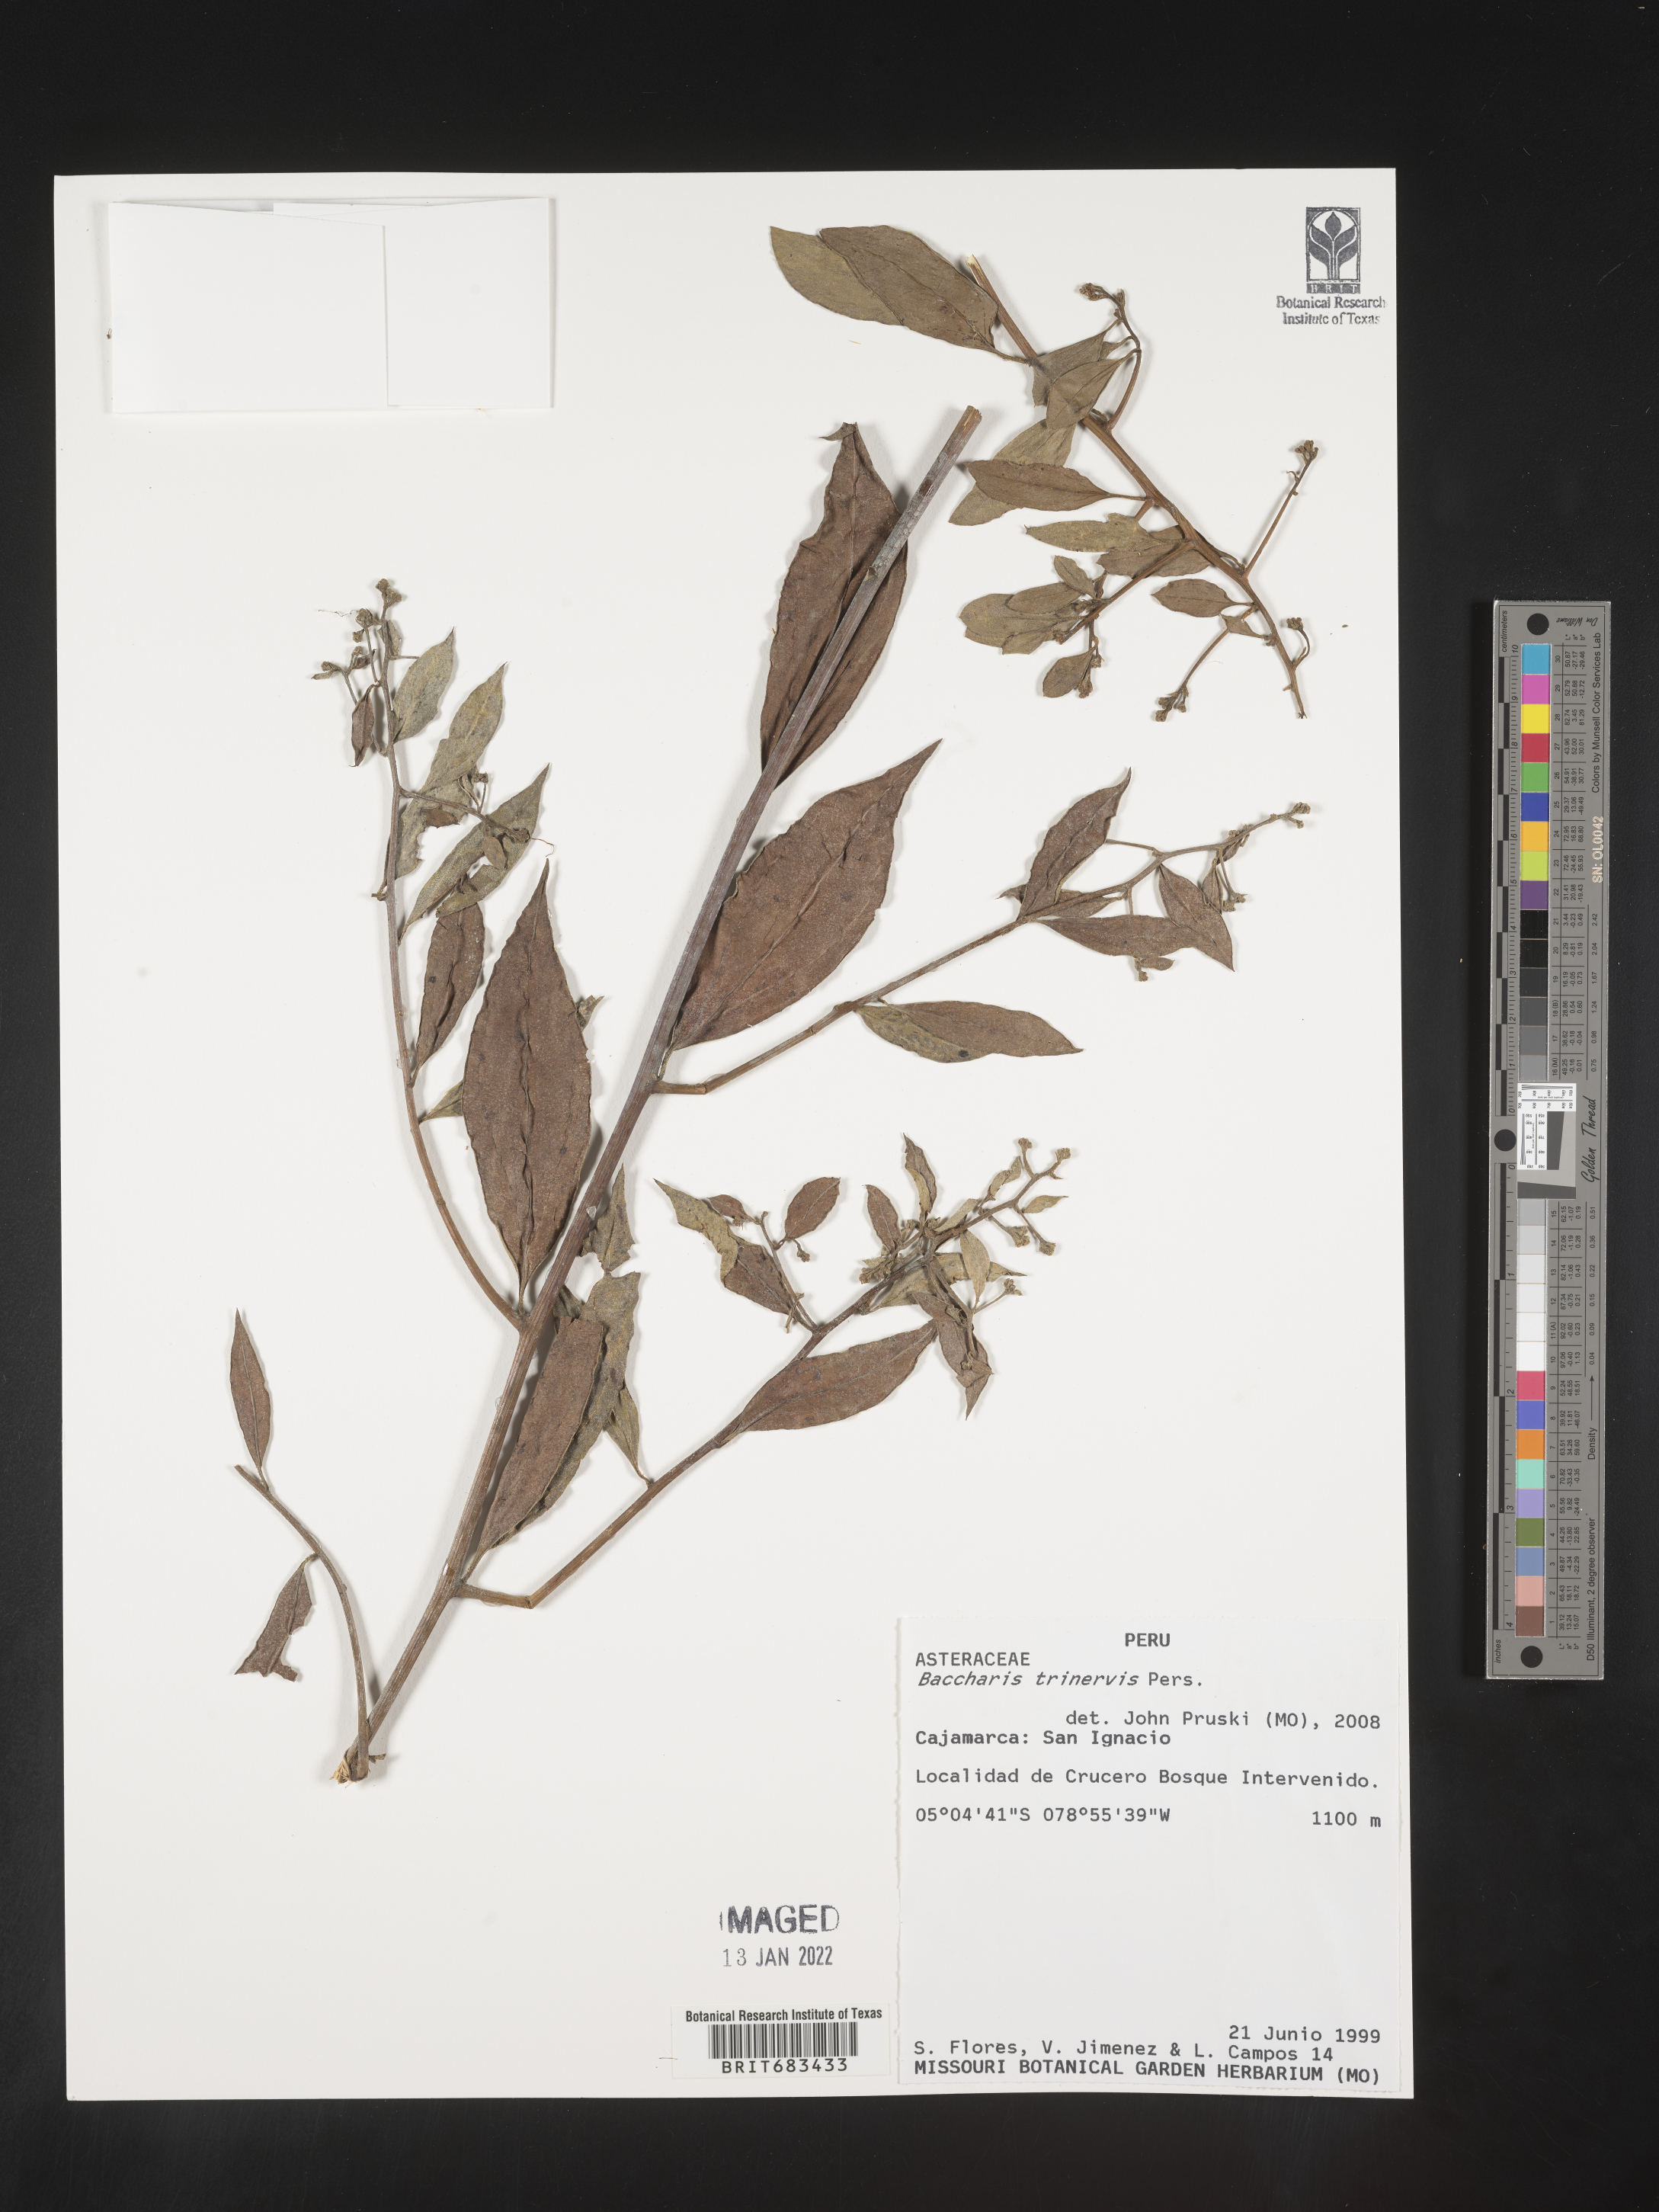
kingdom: Plantae
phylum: Tracheophyta
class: Magnoliopsida
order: Asterales
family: Asteraceae
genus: Baccharis
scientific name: Baccharis trinervis
